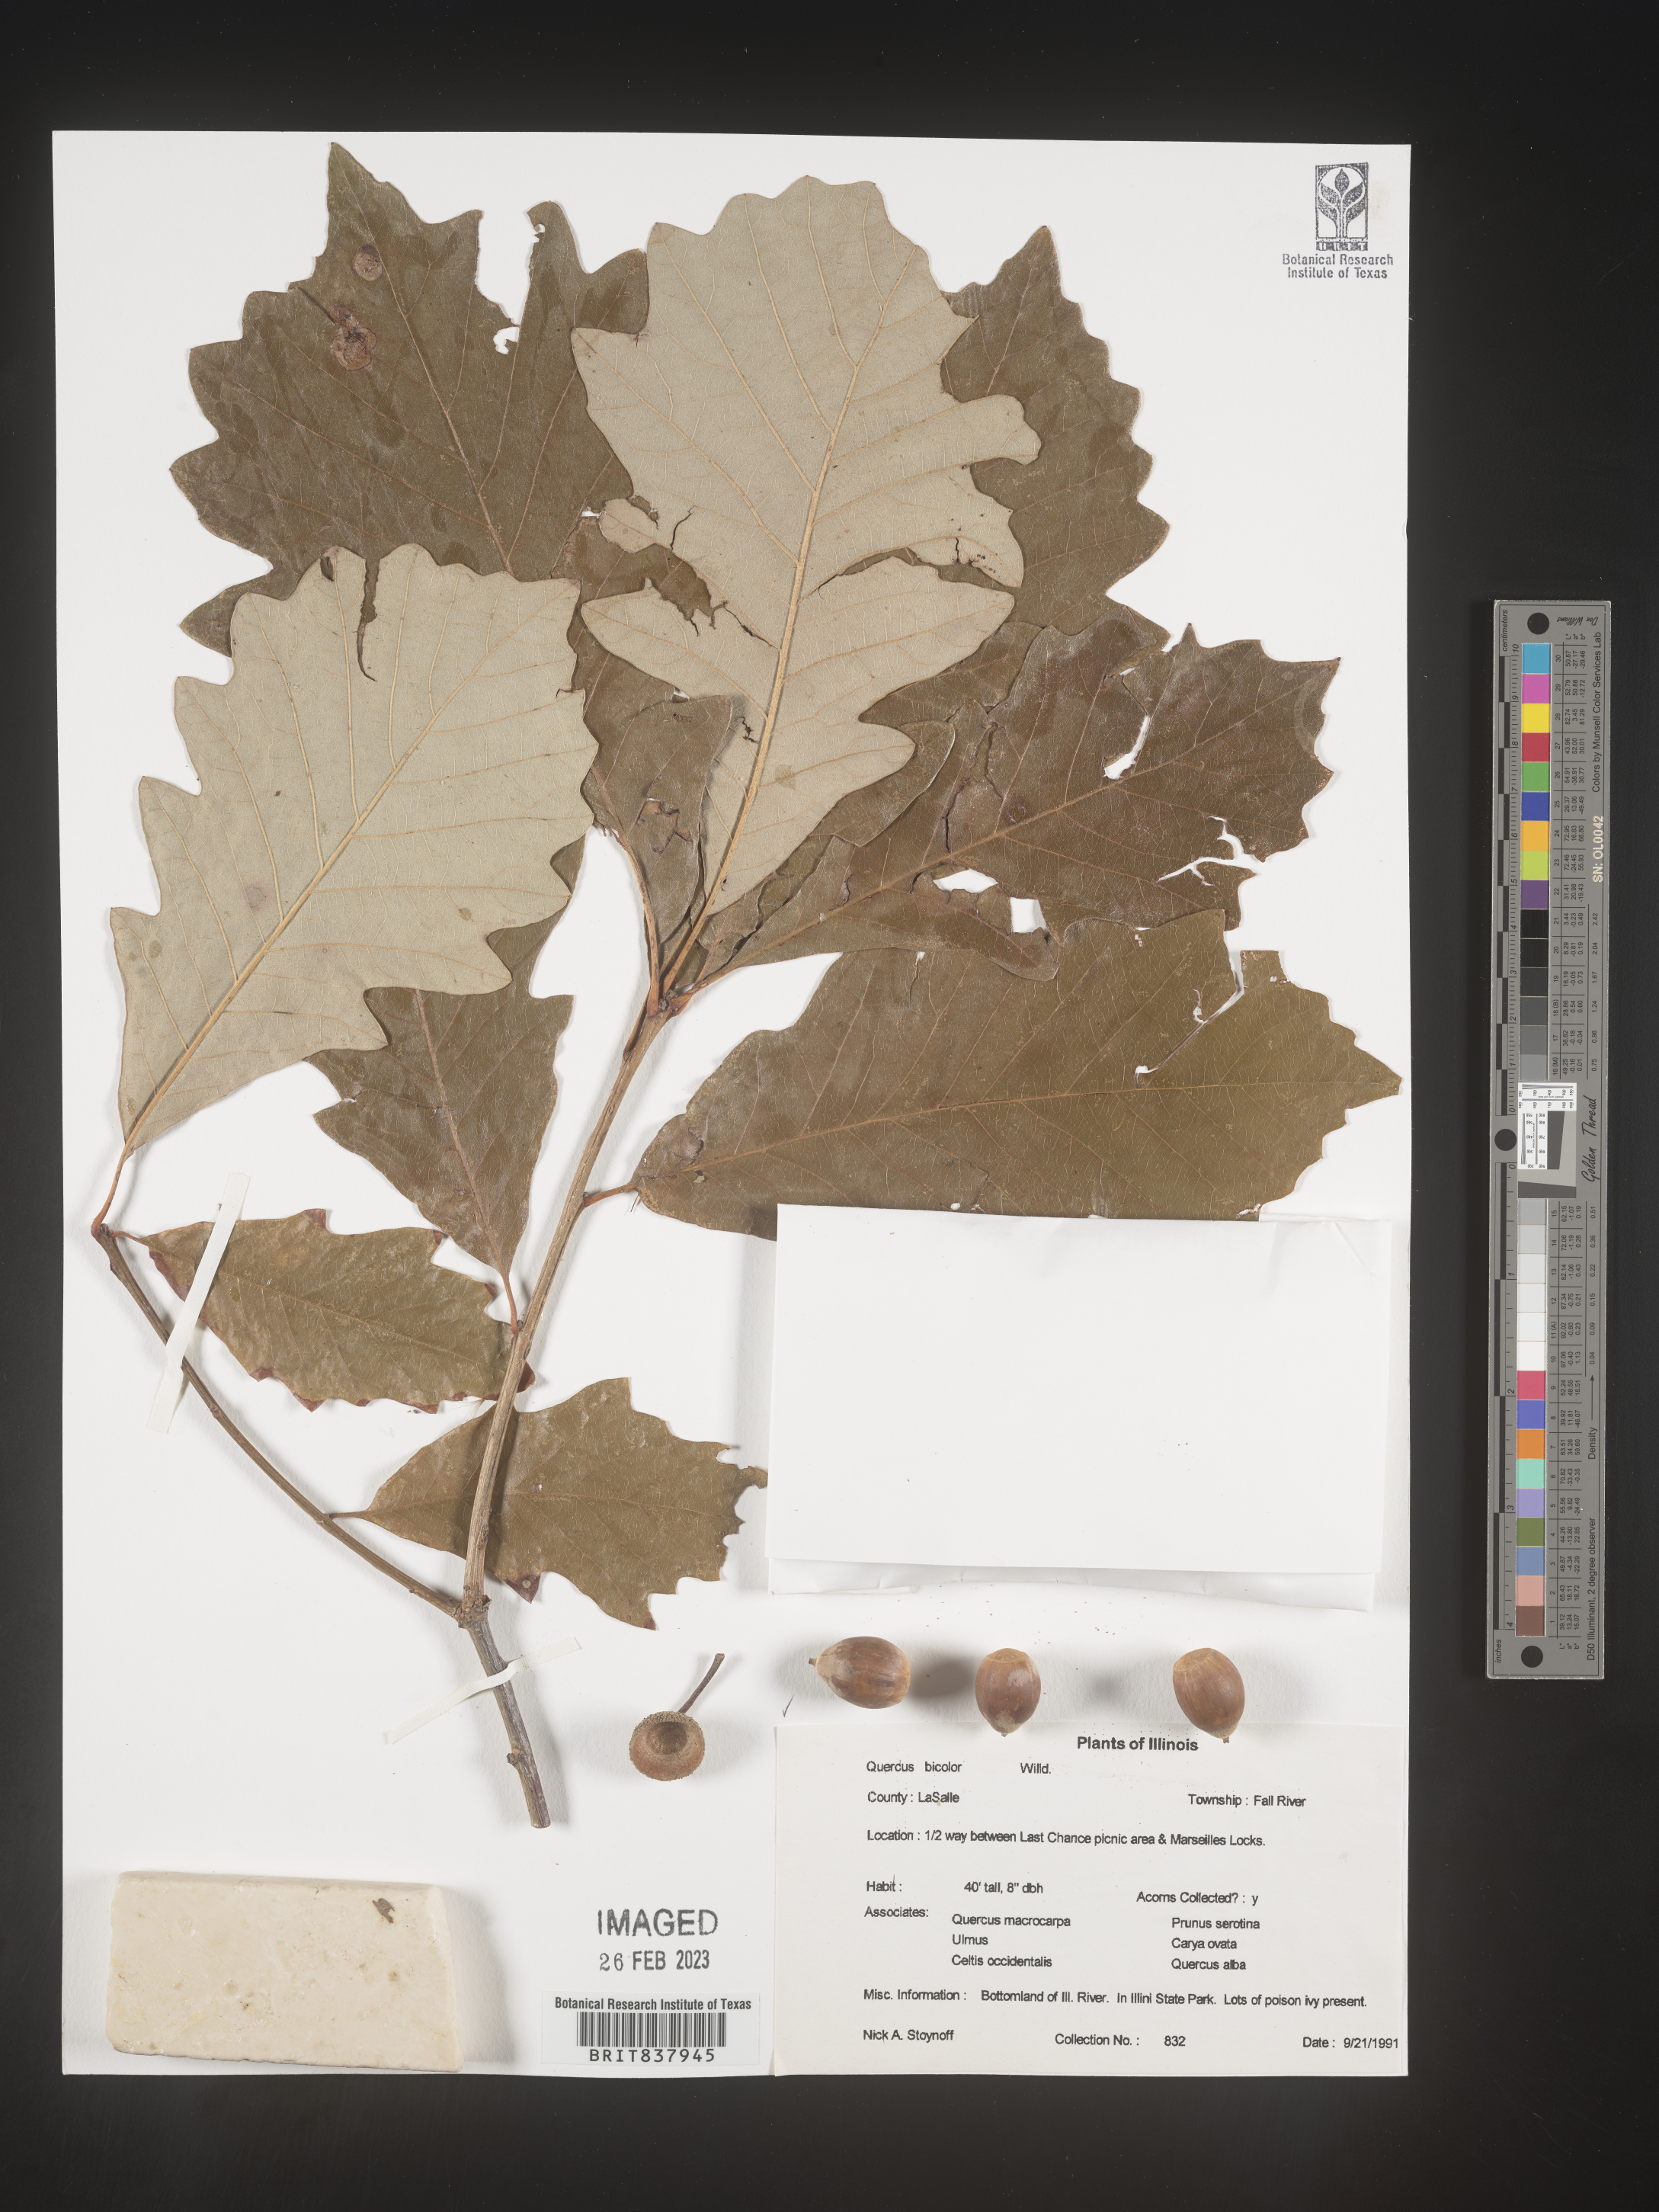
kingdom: Plantae
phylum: Tracheophyta
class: Magnoliopsida
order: Fagales
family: Fagaceae
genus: Quercus
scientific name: Quercus bicolor
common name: Swamp white oak
